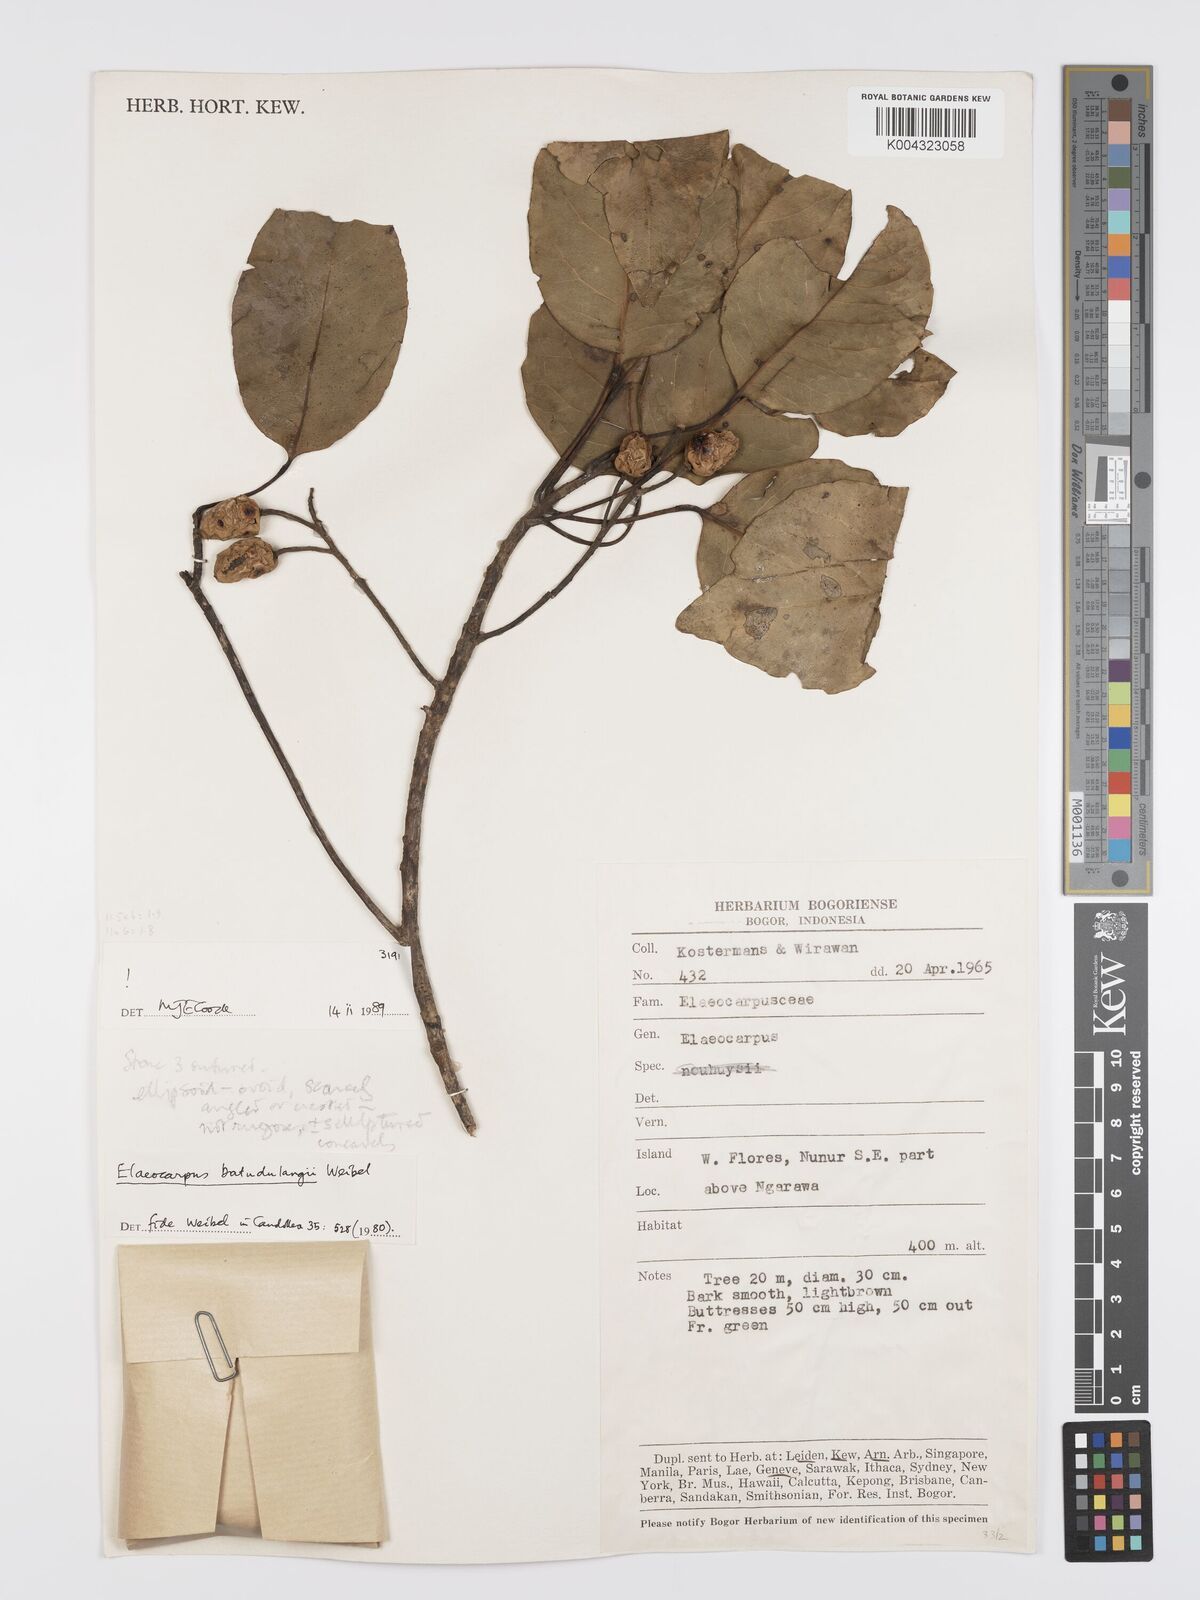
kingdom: Plantae
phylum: Tracheophyta
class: Magnoliopsida
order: Oxalidales
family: Elaeocarpaceae
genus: Elaeocarpus
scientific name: Elaeocarpus batudulangii
